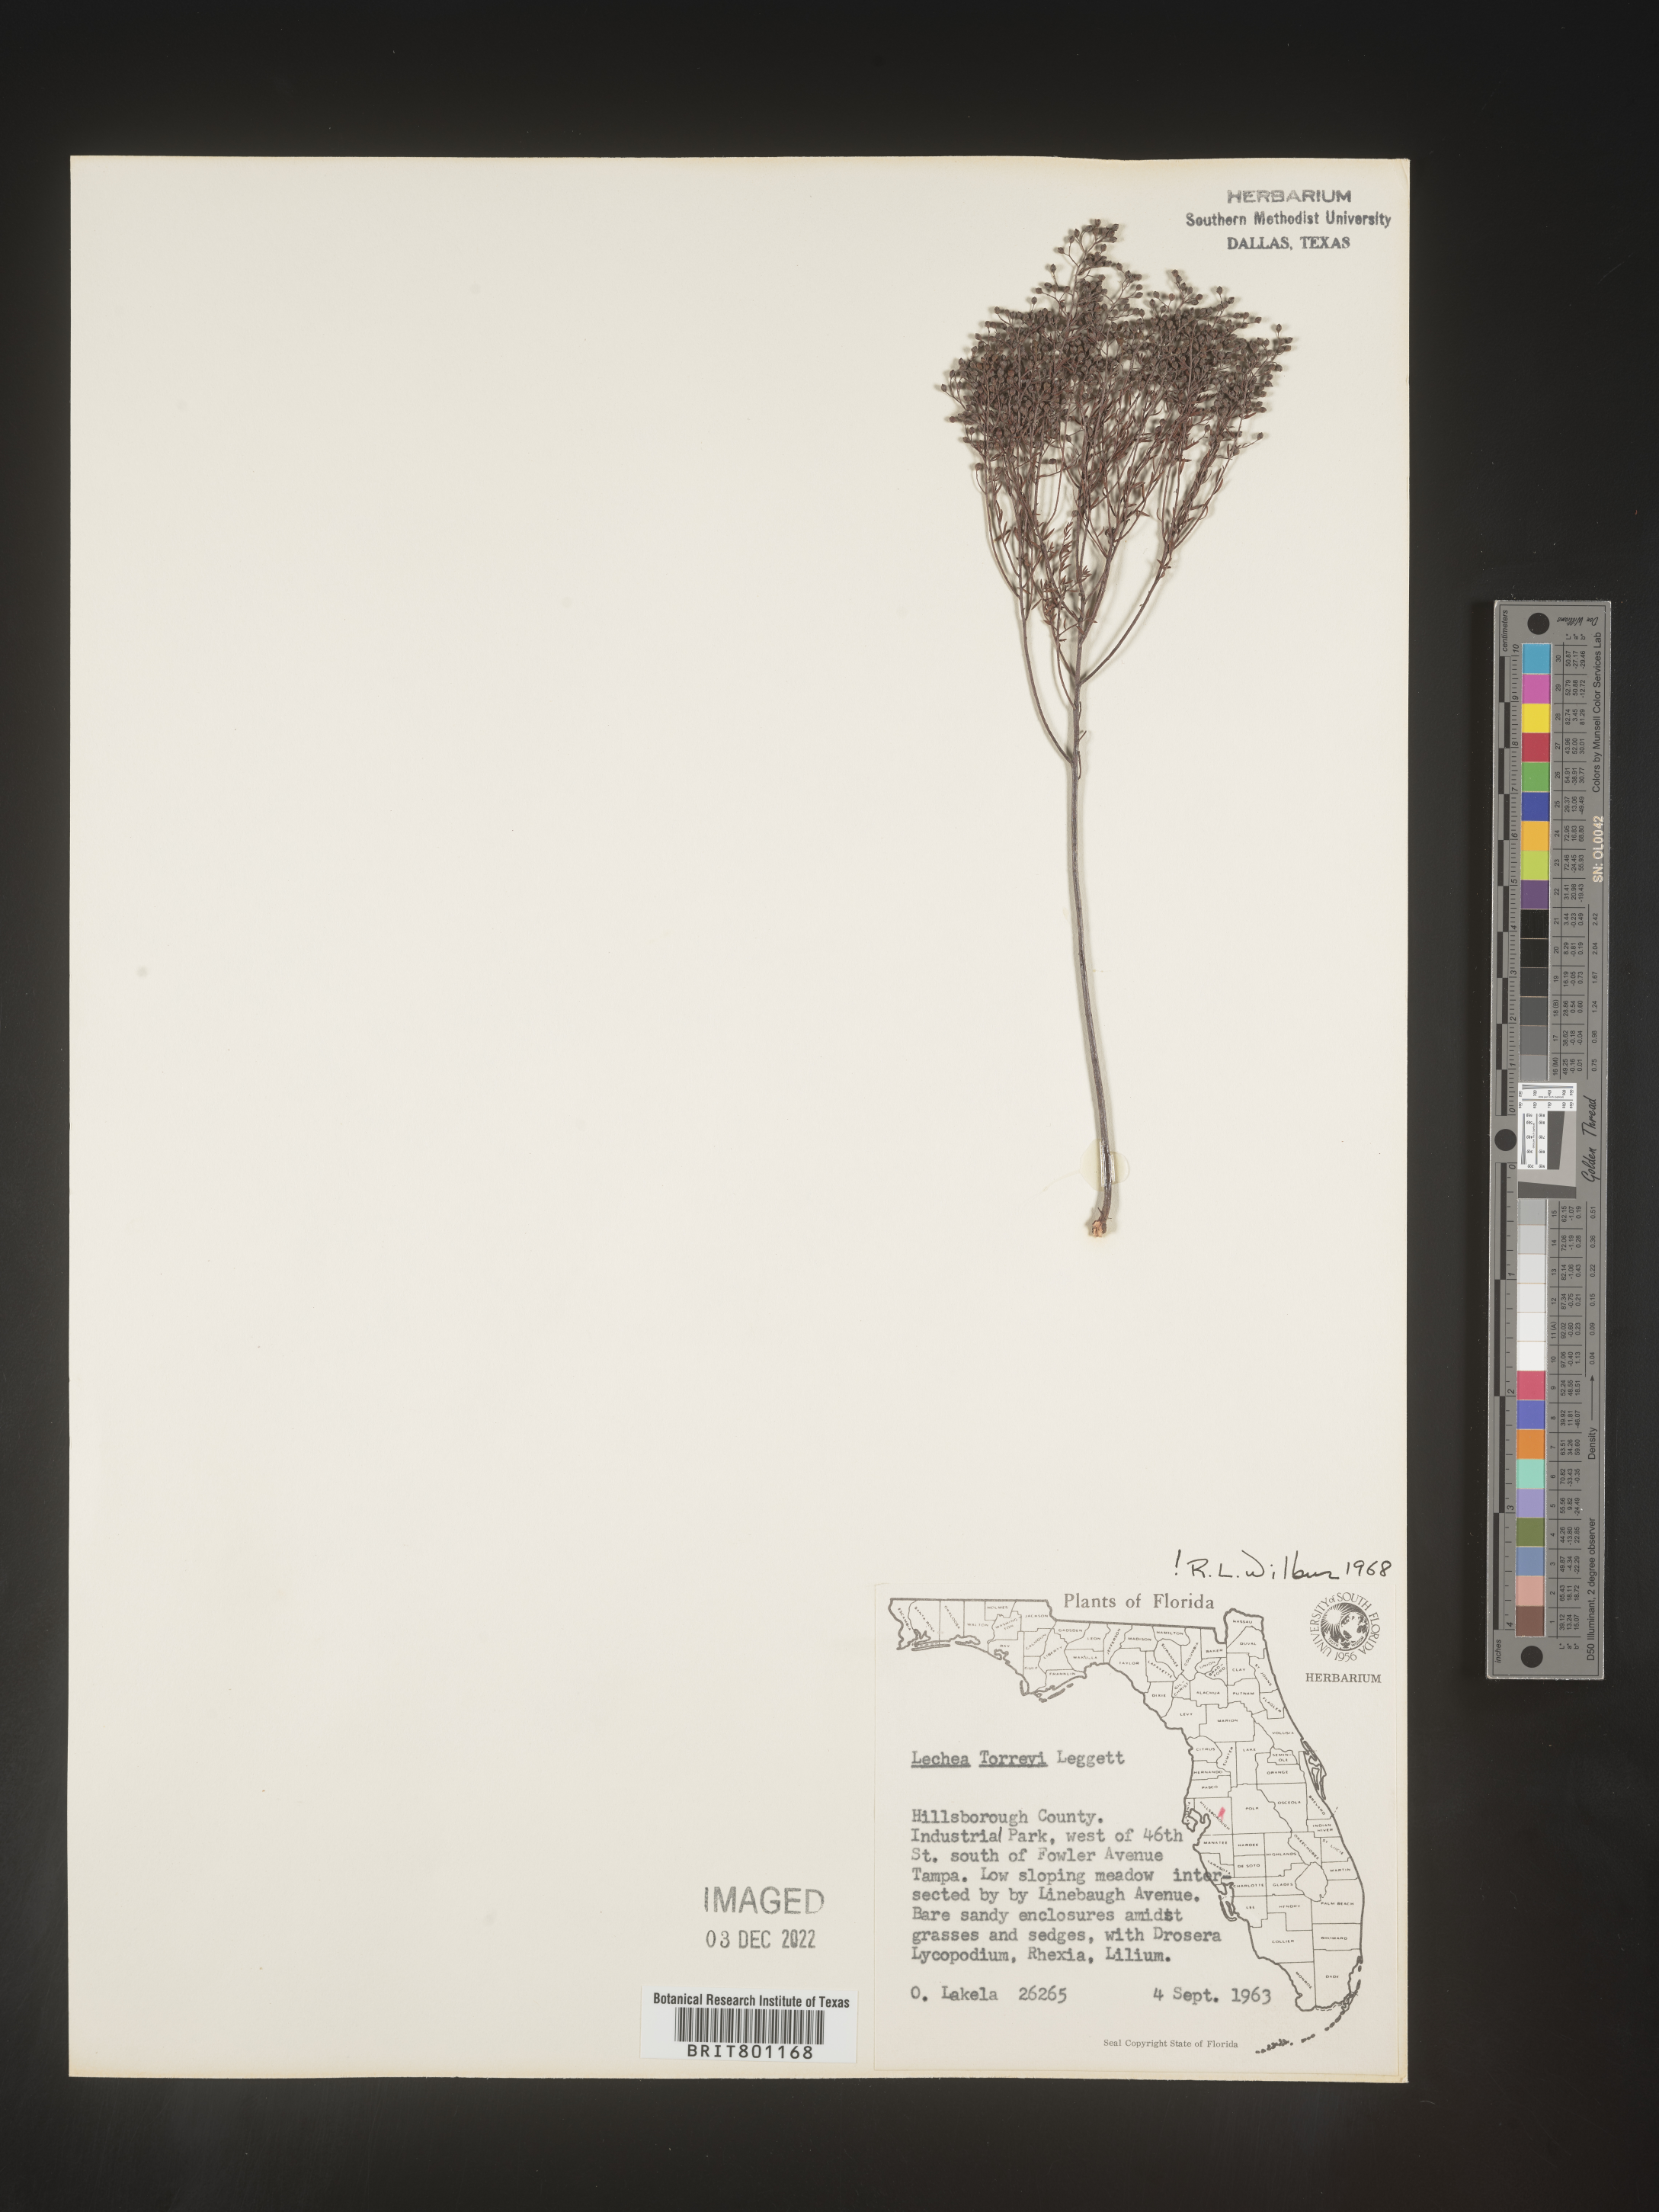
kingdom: Plantae
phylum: Tracheophyta
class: Magnoliopsida
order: Malvales
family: Cistaceae
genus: Lechea
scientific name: Lechea torreyi
